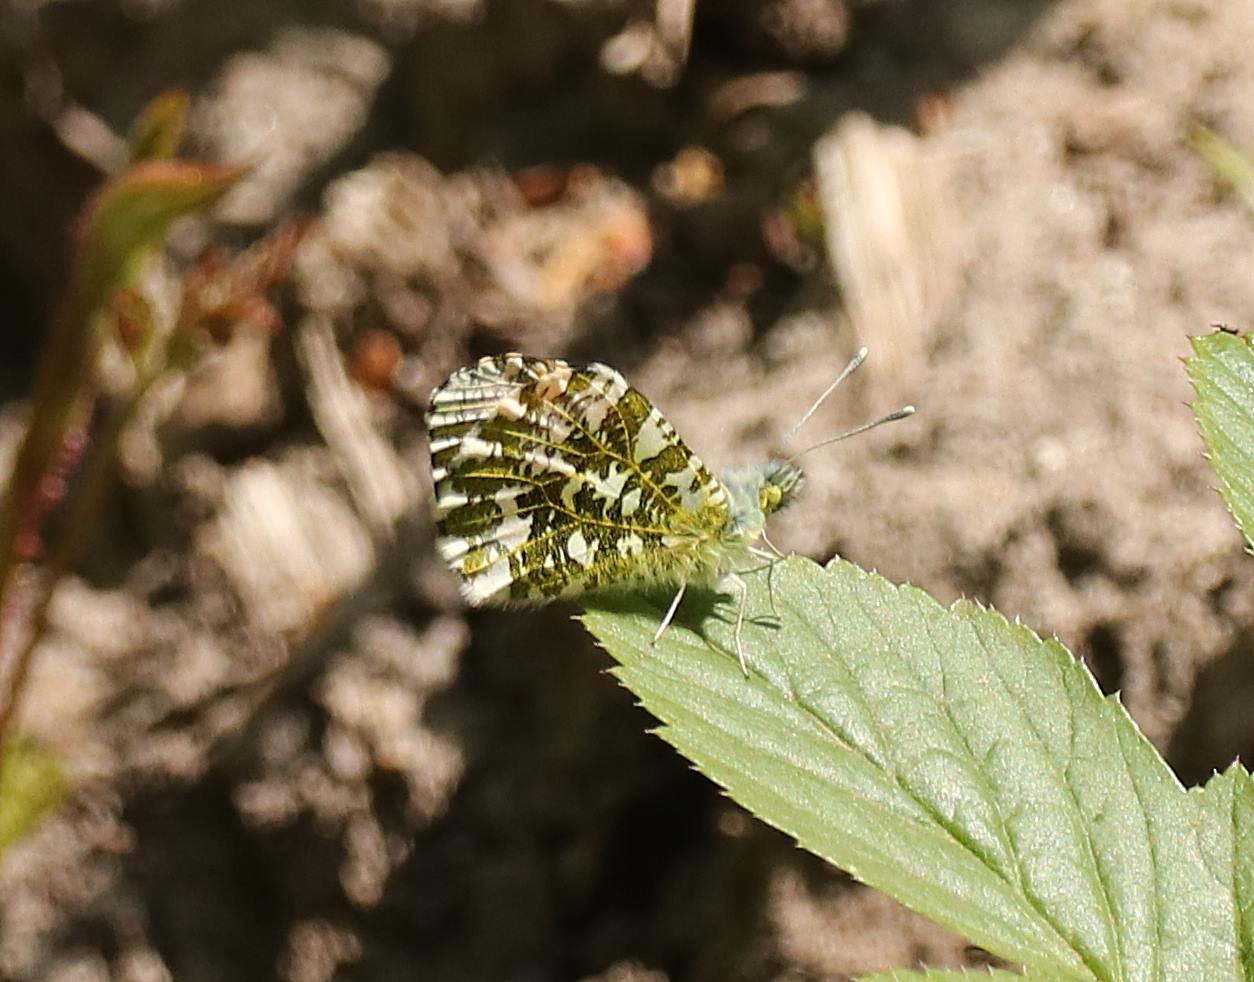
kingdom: Animalia
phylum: Arthropoda
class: Insecta
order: Lepidoptera
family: Pieridae
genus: Anthocharis
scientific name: Anthocharis cardamines
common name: Aurora
